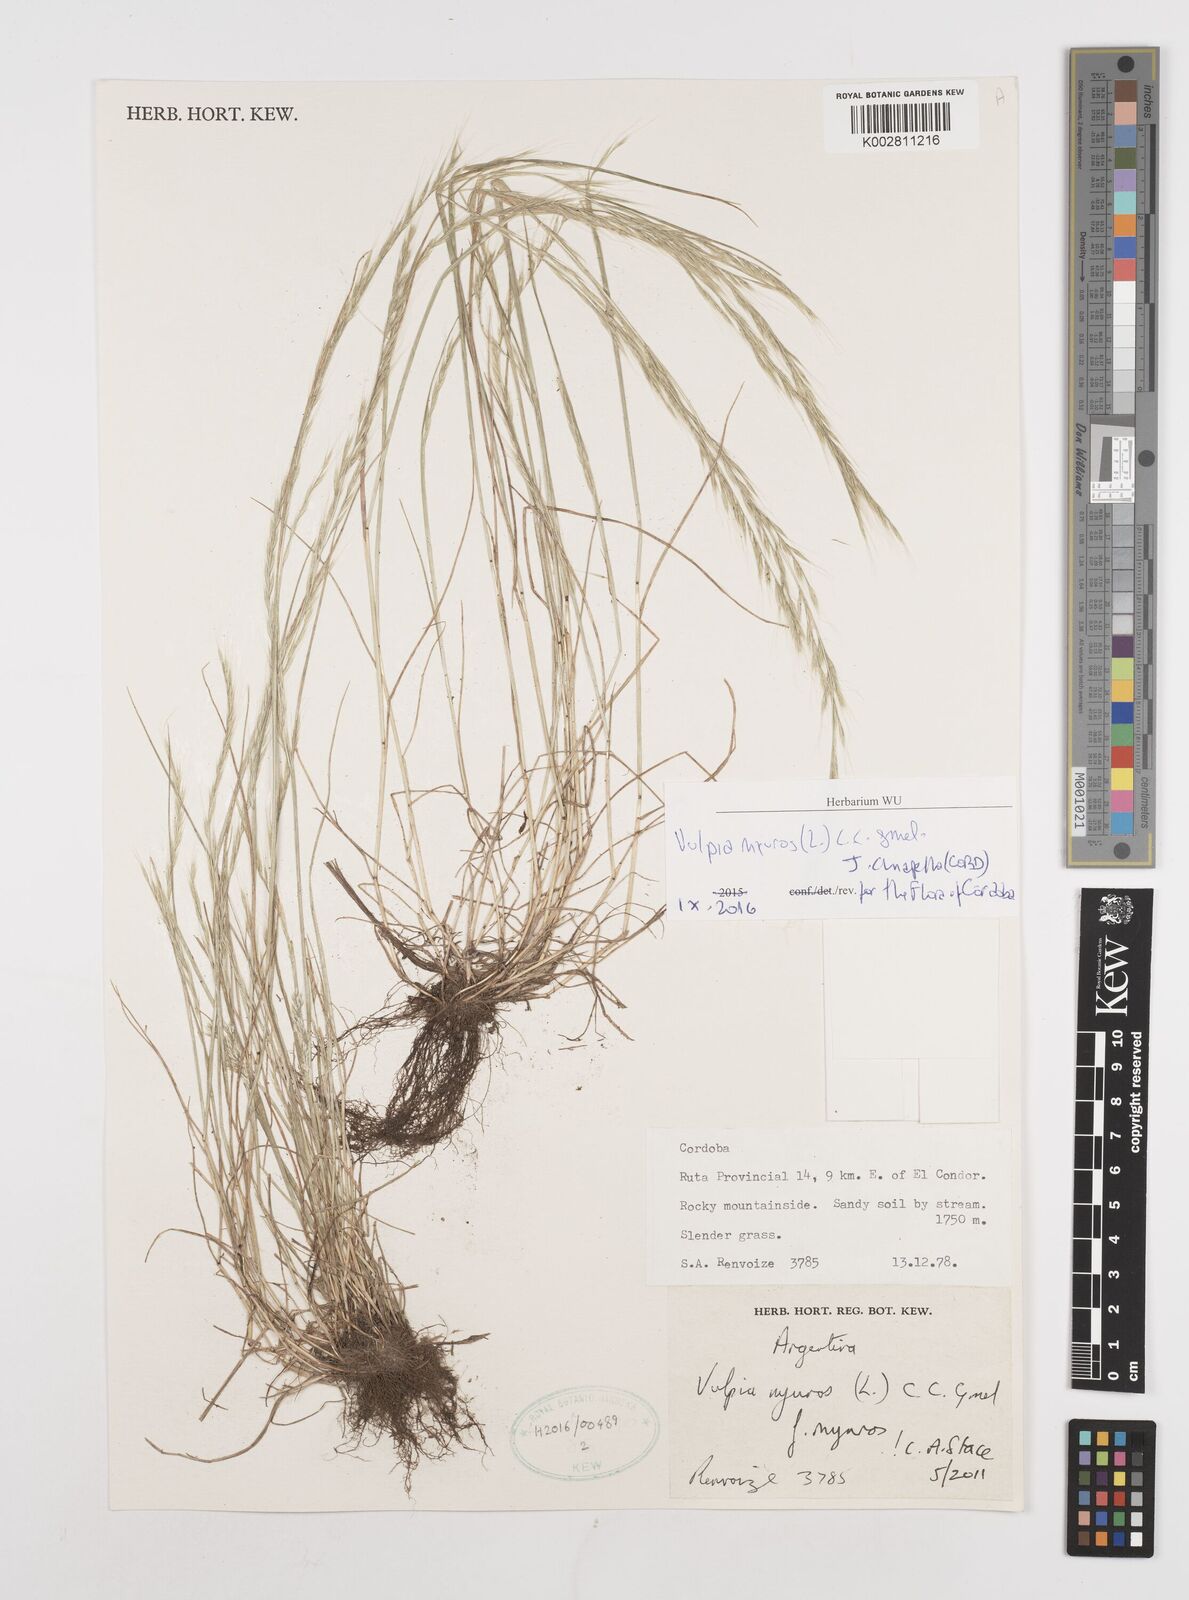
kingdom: Plantae
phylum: Tracheophyta
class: Liliopsida
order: Poales
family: Poaceae
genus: Festuca
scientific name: Festuca myuros
